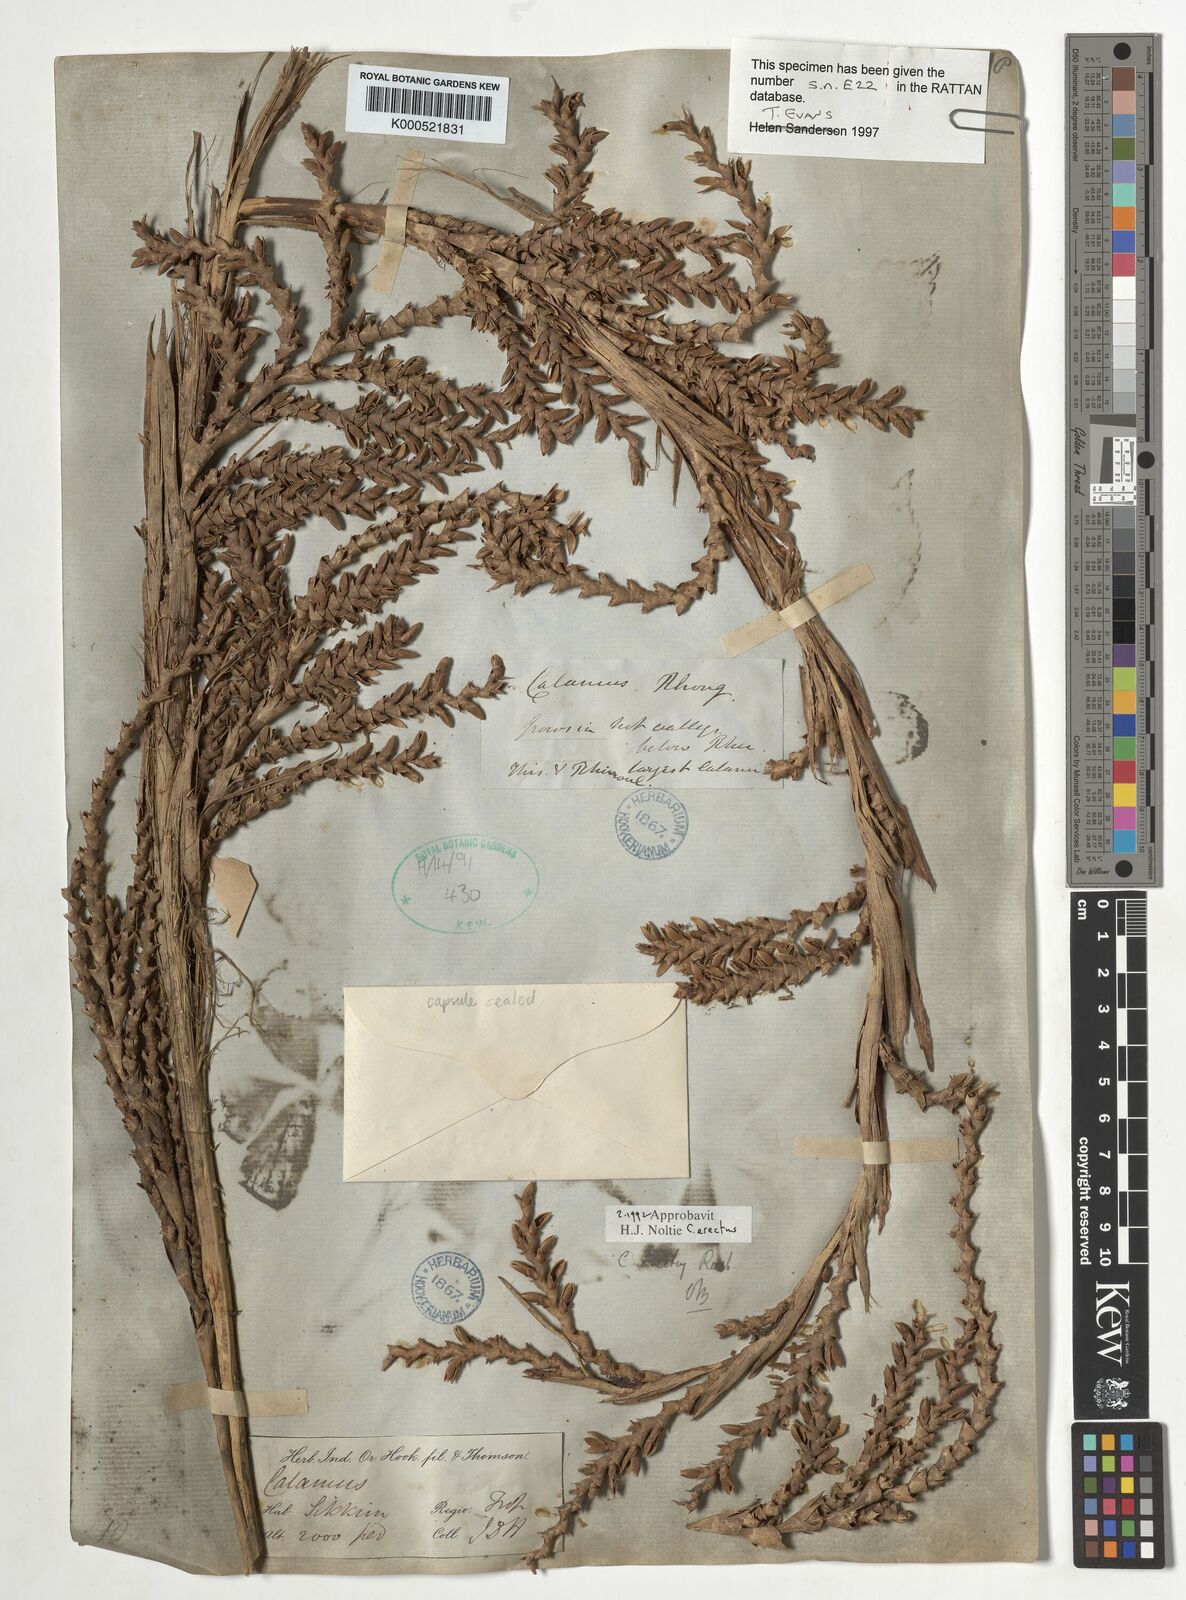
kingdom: Plantae
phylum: Tracheophyta
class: Liliopsida
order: Arecales
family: Arecaceae
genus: Calamus
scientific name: Calamus erectus
